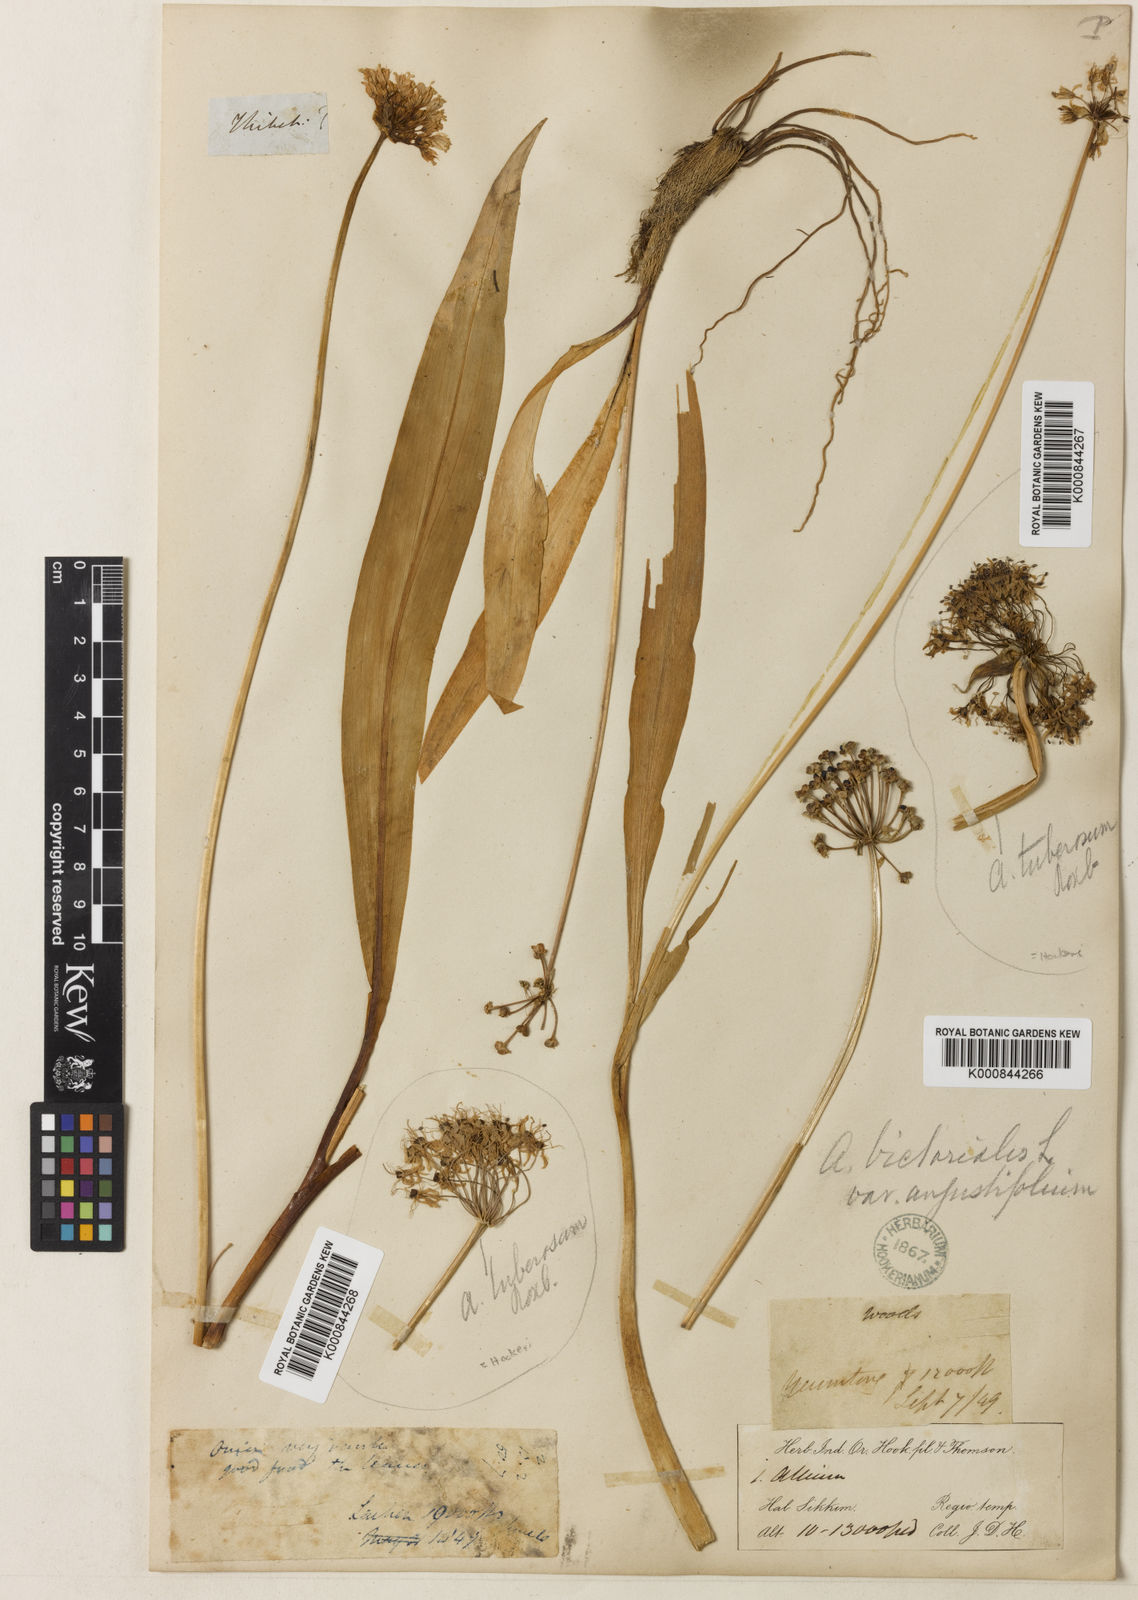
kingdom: Plantae
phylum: Tracheophyta
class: Liliopsida
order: Asparagales
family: Amaryllidaceae
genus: Allium
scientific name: Allium victorialis
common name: Alpine leek
